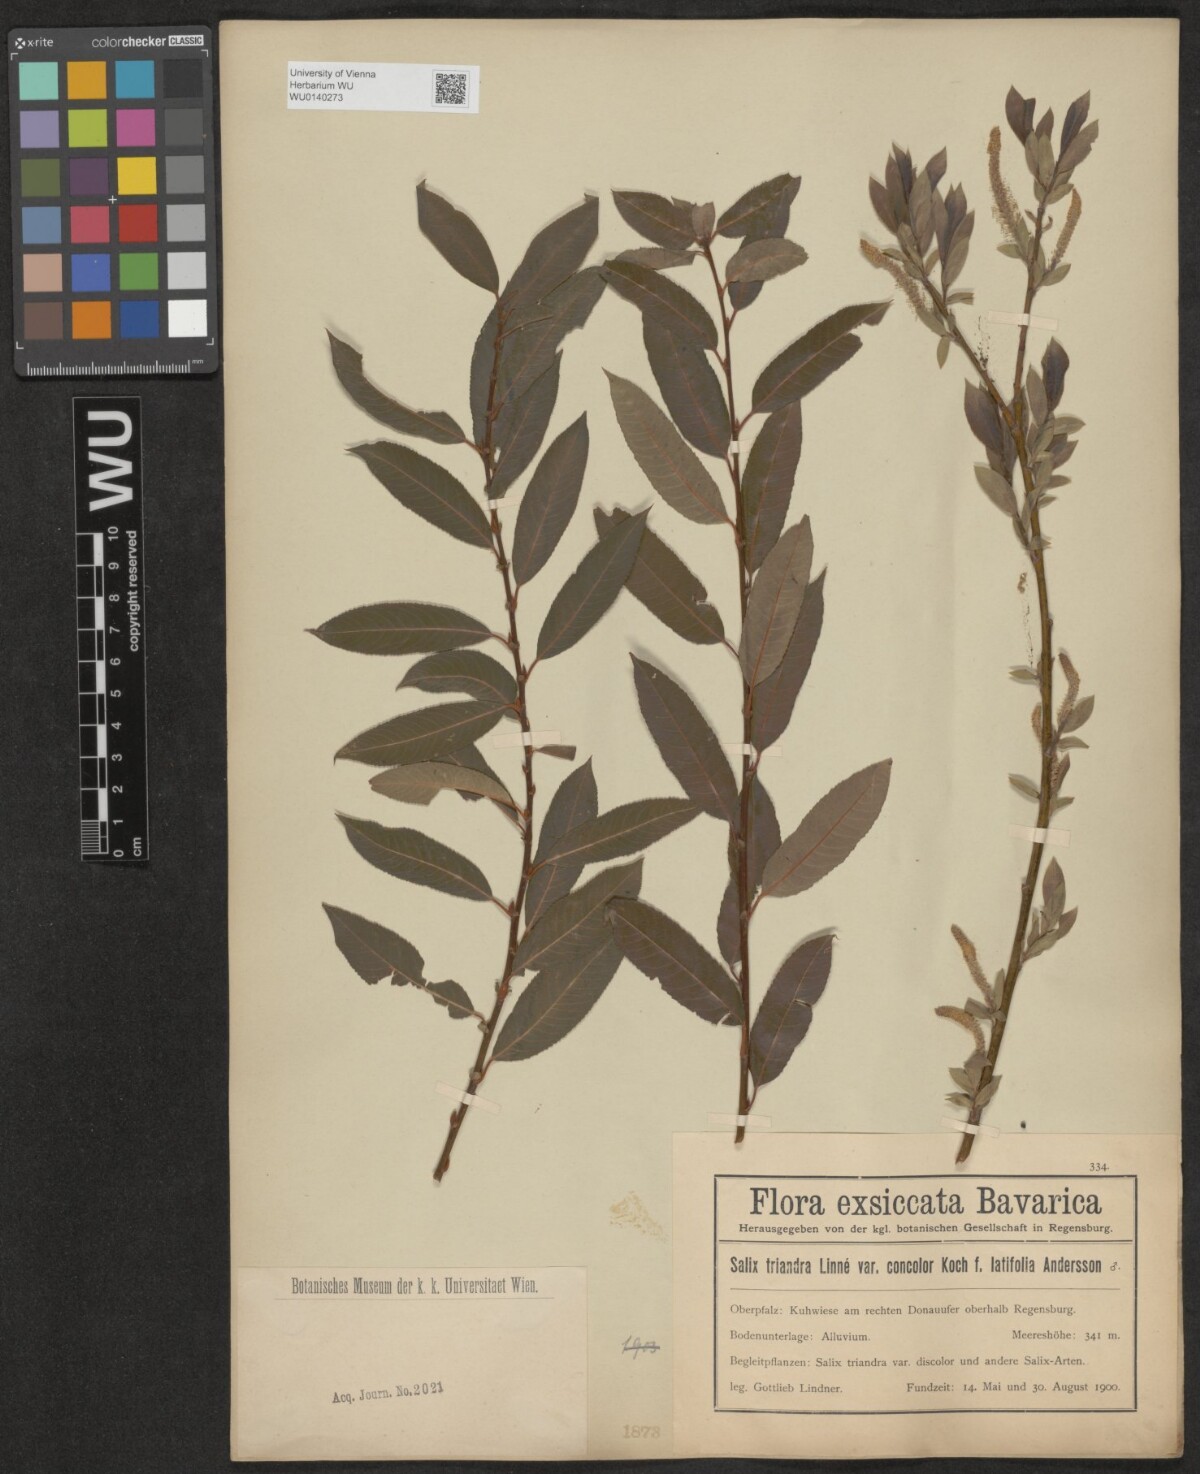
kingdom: Plantae
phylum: Tracheophyta
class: Magnoliopsida
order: Malpighiales
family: Salicaceae
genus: Salix
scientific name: Salix triandra
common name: Almond willow
